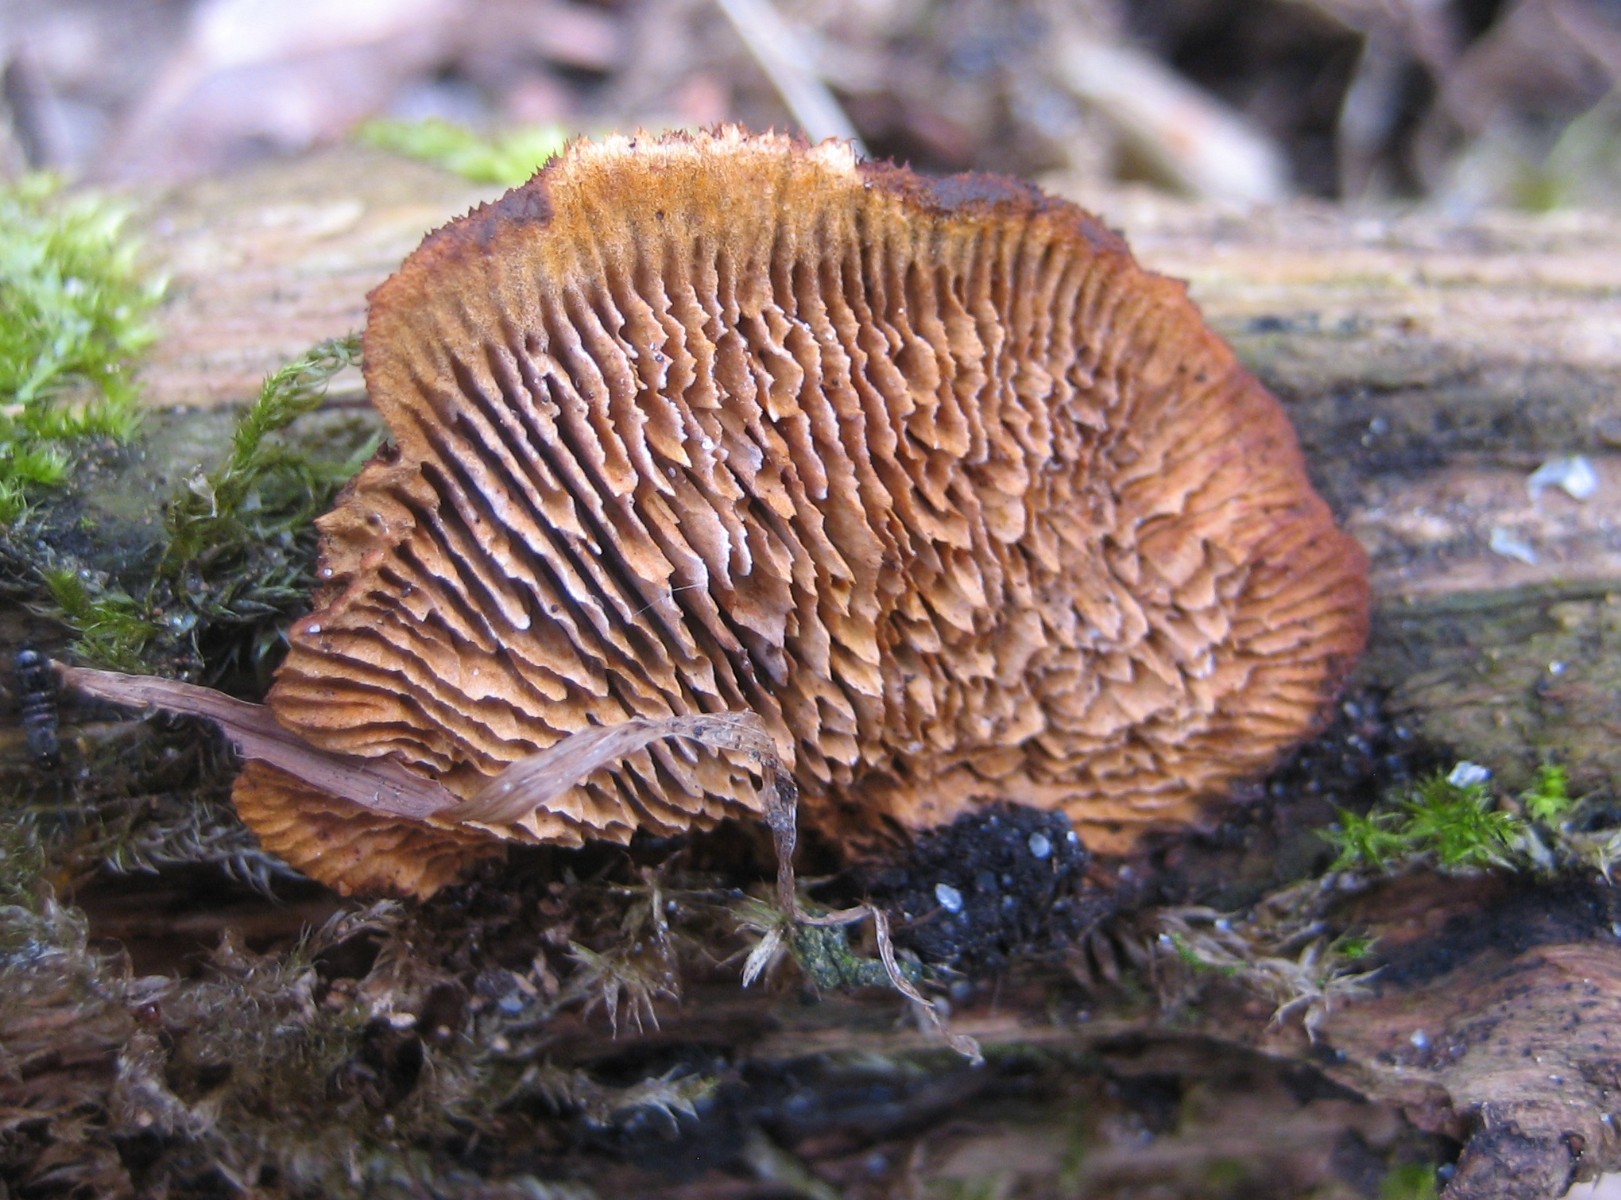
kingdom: Fungi
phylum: Basidiomycota
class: Agaricomycetes
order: Gloeophyllales
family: Gloeophyllaceae
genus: Gloeophyllum
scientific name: Gloeophyllum sepiarium
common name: fyrre-korkhat
